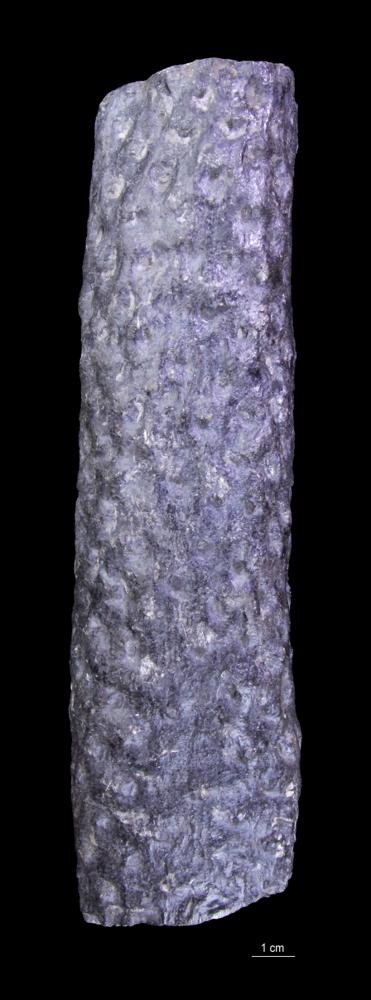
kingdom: Plantae
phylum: Tracheophyta
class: Lycopodiopsida
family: Lepidodendraceae
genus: Stigmaria
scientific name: Stigmaria ficoides
